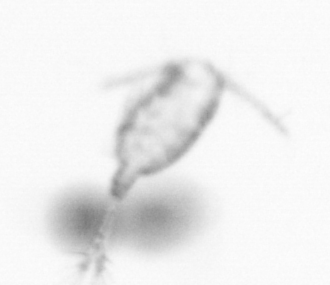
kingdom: Animalia
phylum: Arthropoda
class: Copepoda
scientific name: Copepoda
